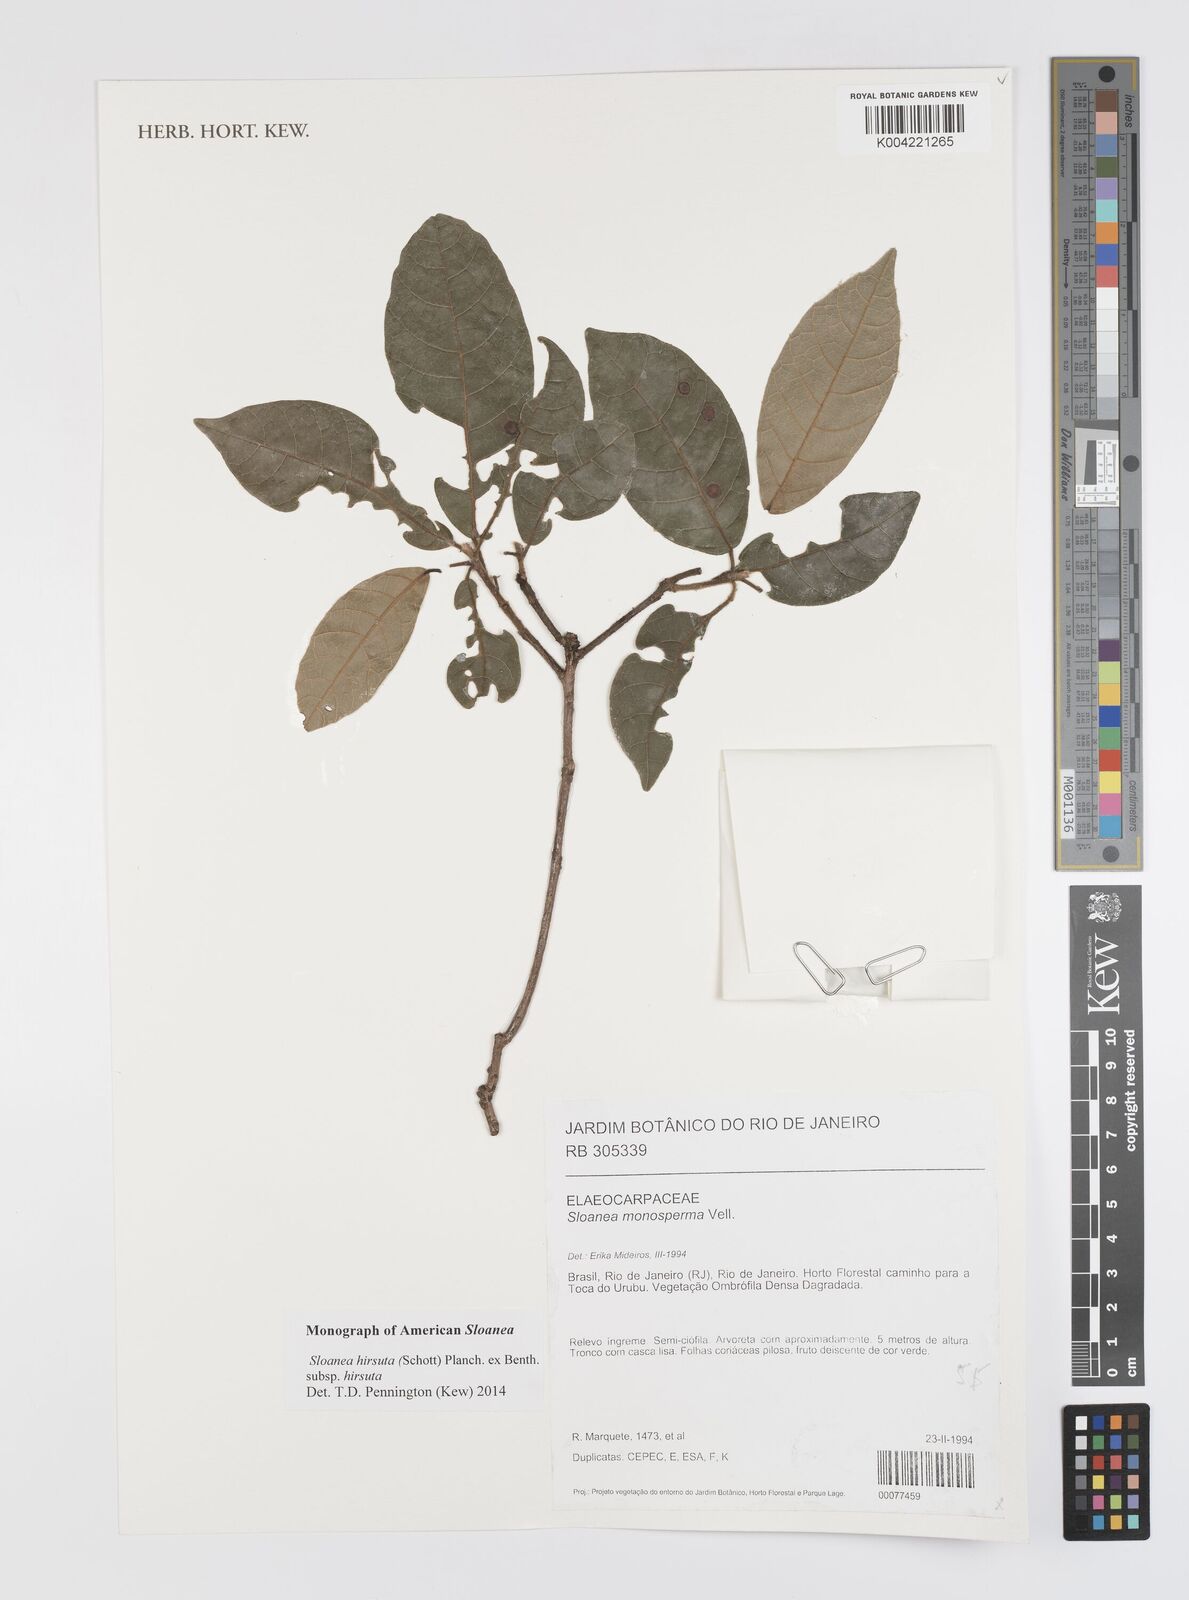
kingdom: Plantae
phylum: Tracheophyta
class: Magnoliopsida
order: Oxalidales
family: Elaeocarpaceae
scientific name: Elaeocarpaceae
